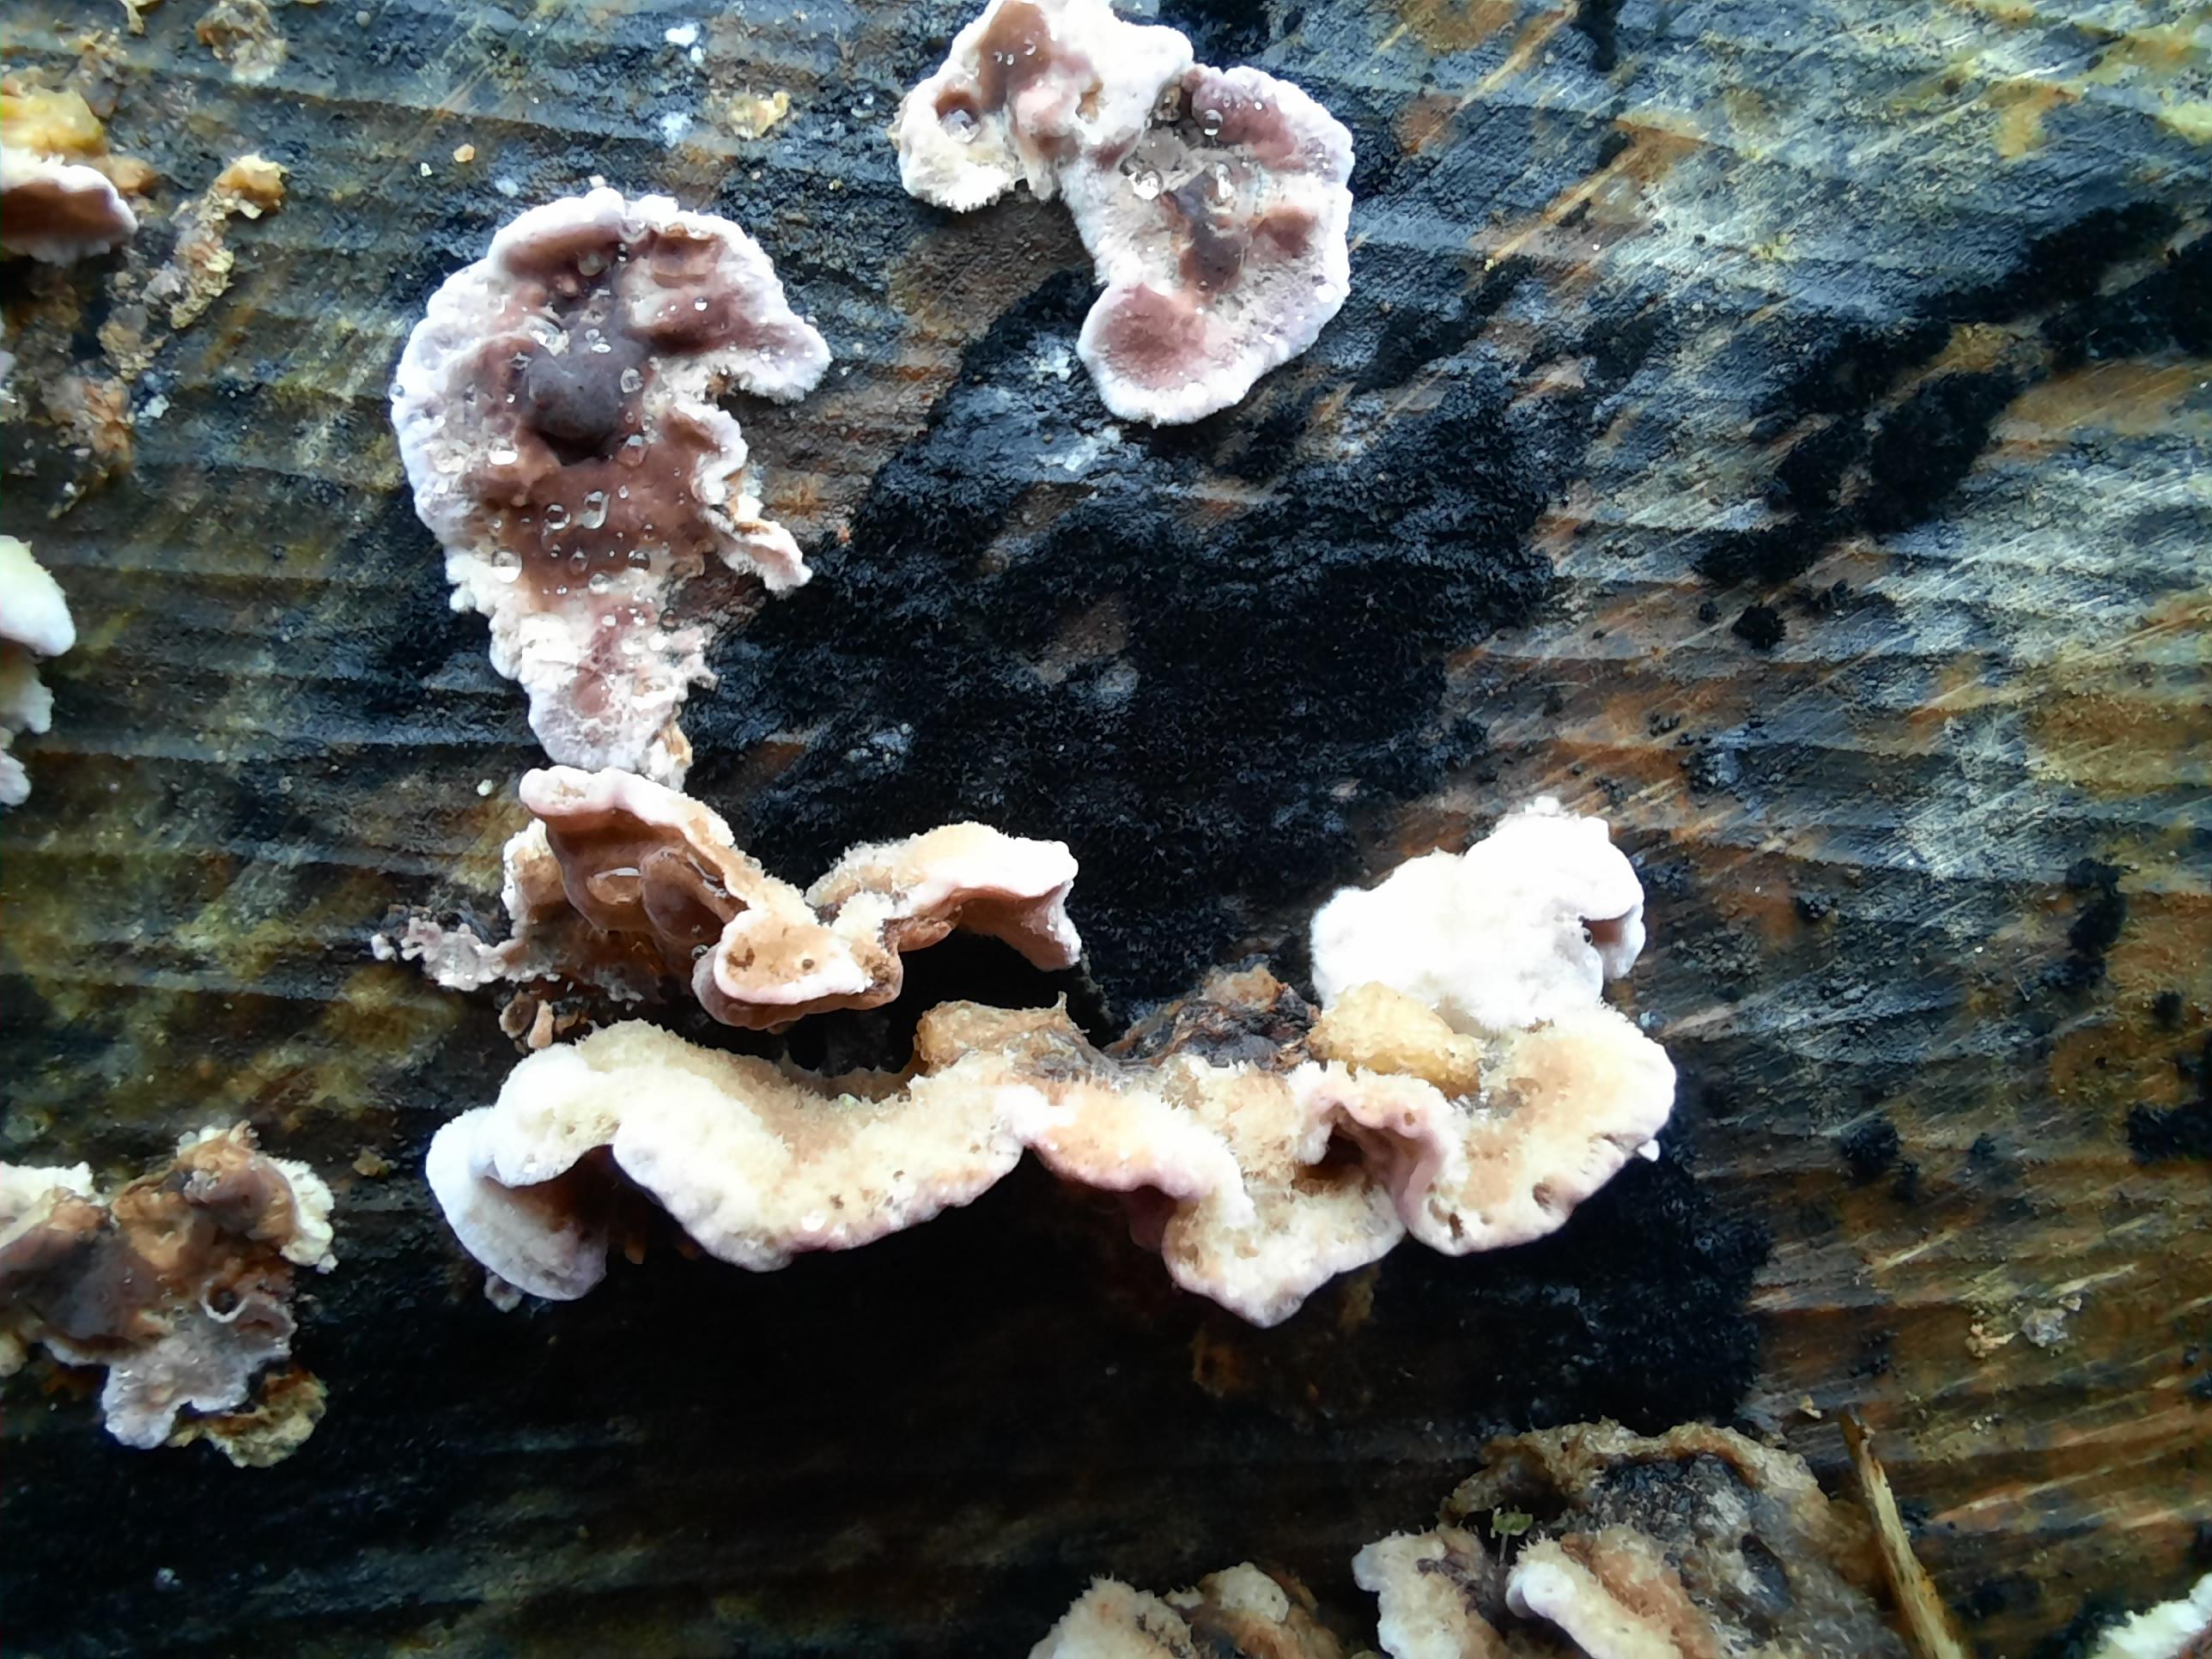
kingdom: Fungi
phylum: Basidiomycota
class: Agaricomycetes
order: Agaricales
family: Cyphellaceae
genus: Chondrostereum
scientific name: Chondrostereum purpureum
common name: purpurlædersvamp
